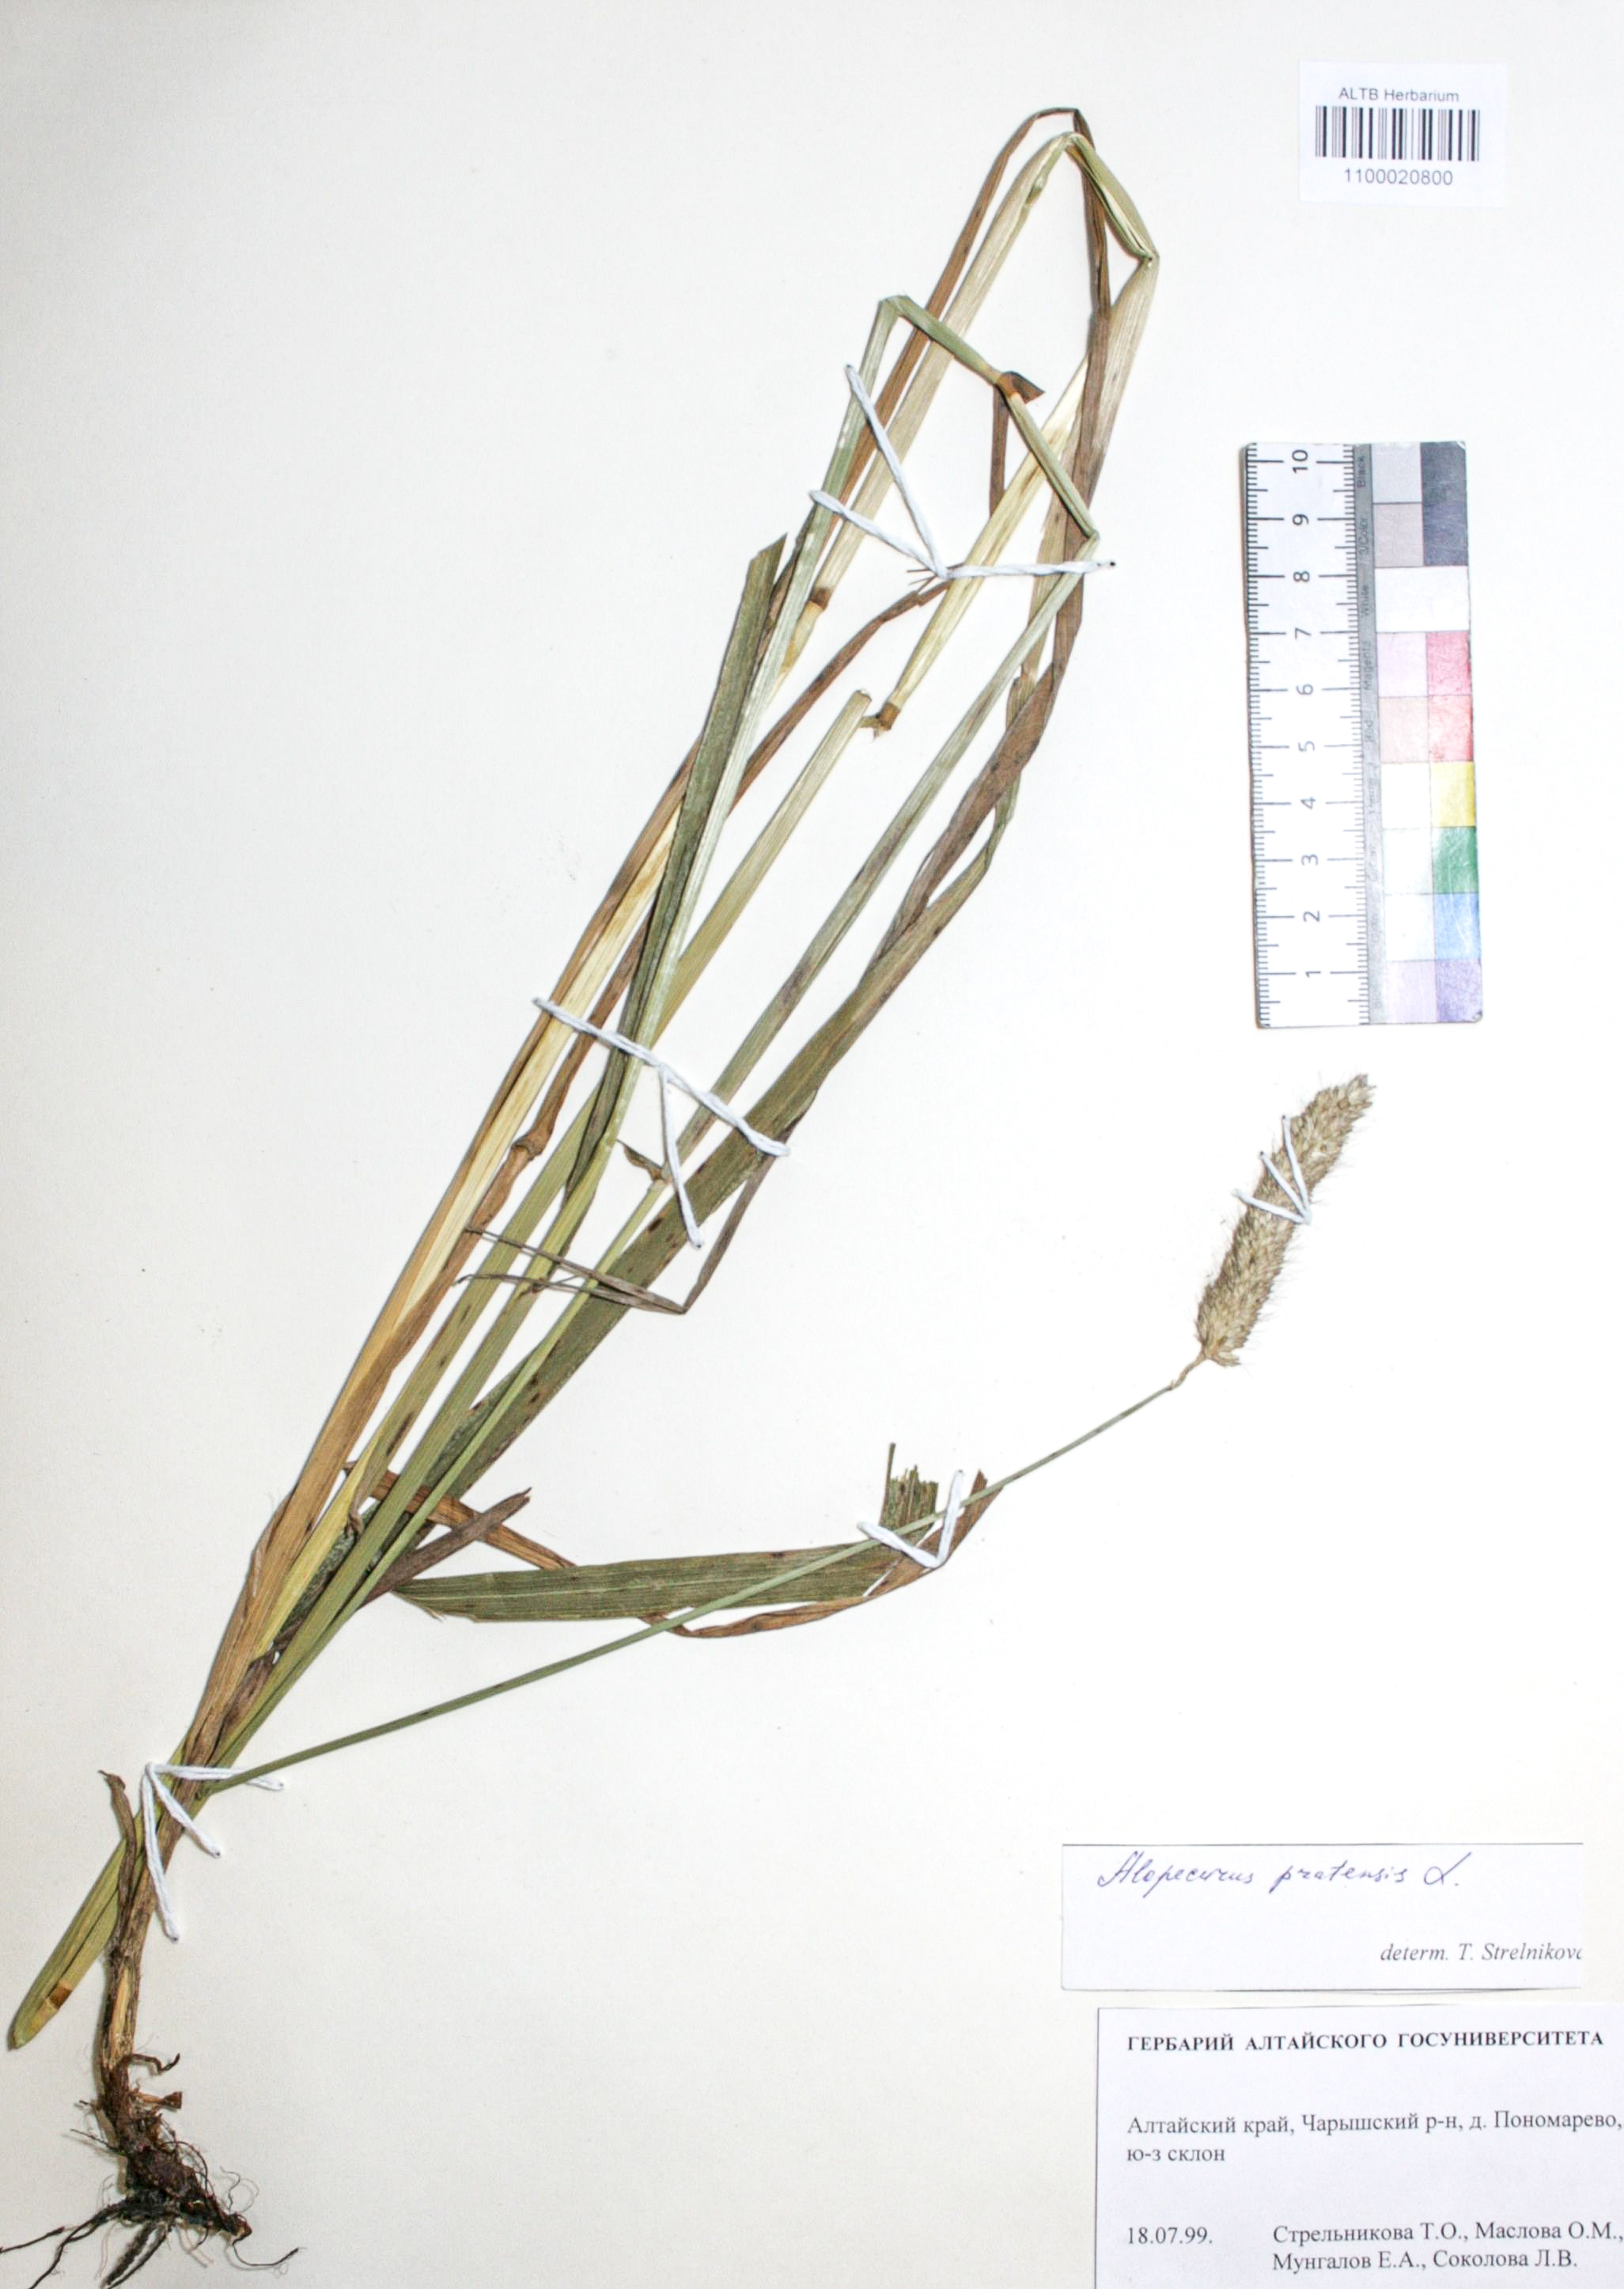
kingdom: Plantae
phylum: Tracheophyta
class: Liliopsida
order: Poales
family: Poaceae
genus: Alopecurus
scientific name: Alopecurus pratensis
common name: Meadow foxtail
